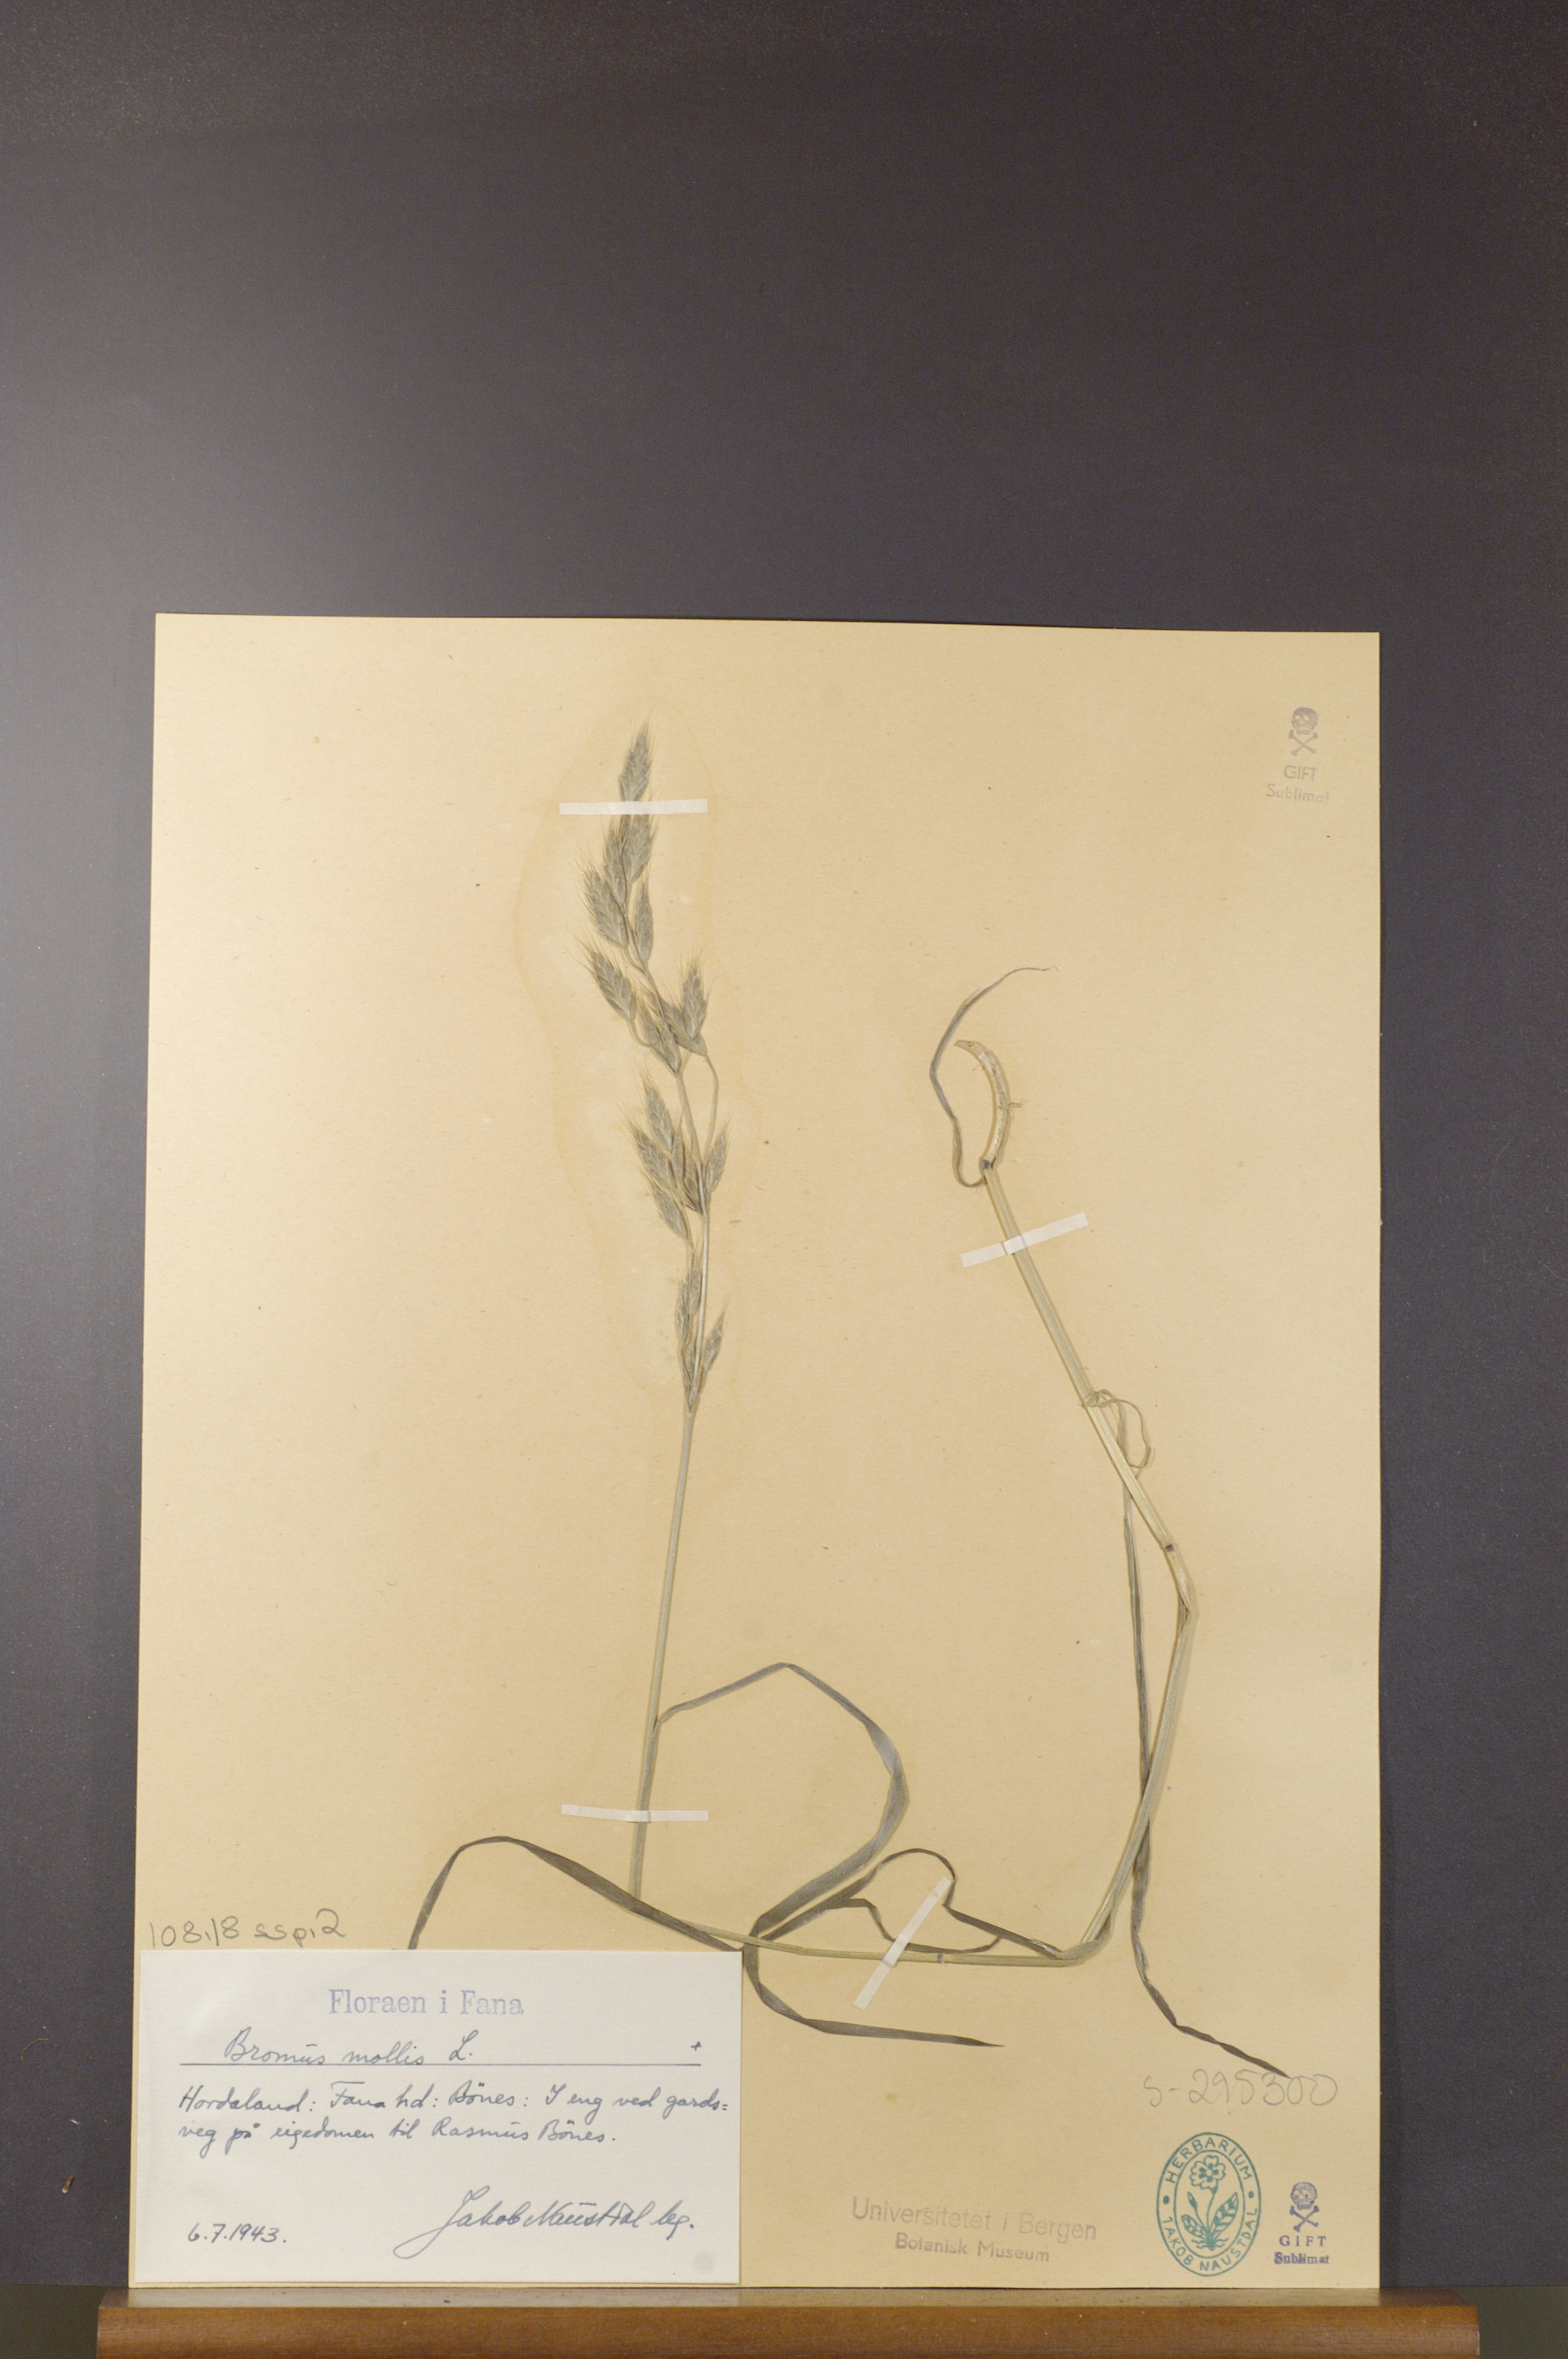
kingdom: Plantae
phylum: Tracheophyta
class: Liliopsida
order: Poales
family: Poaceae
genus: Bromus
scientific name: Bromus hordeaceus
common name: Soft brome
